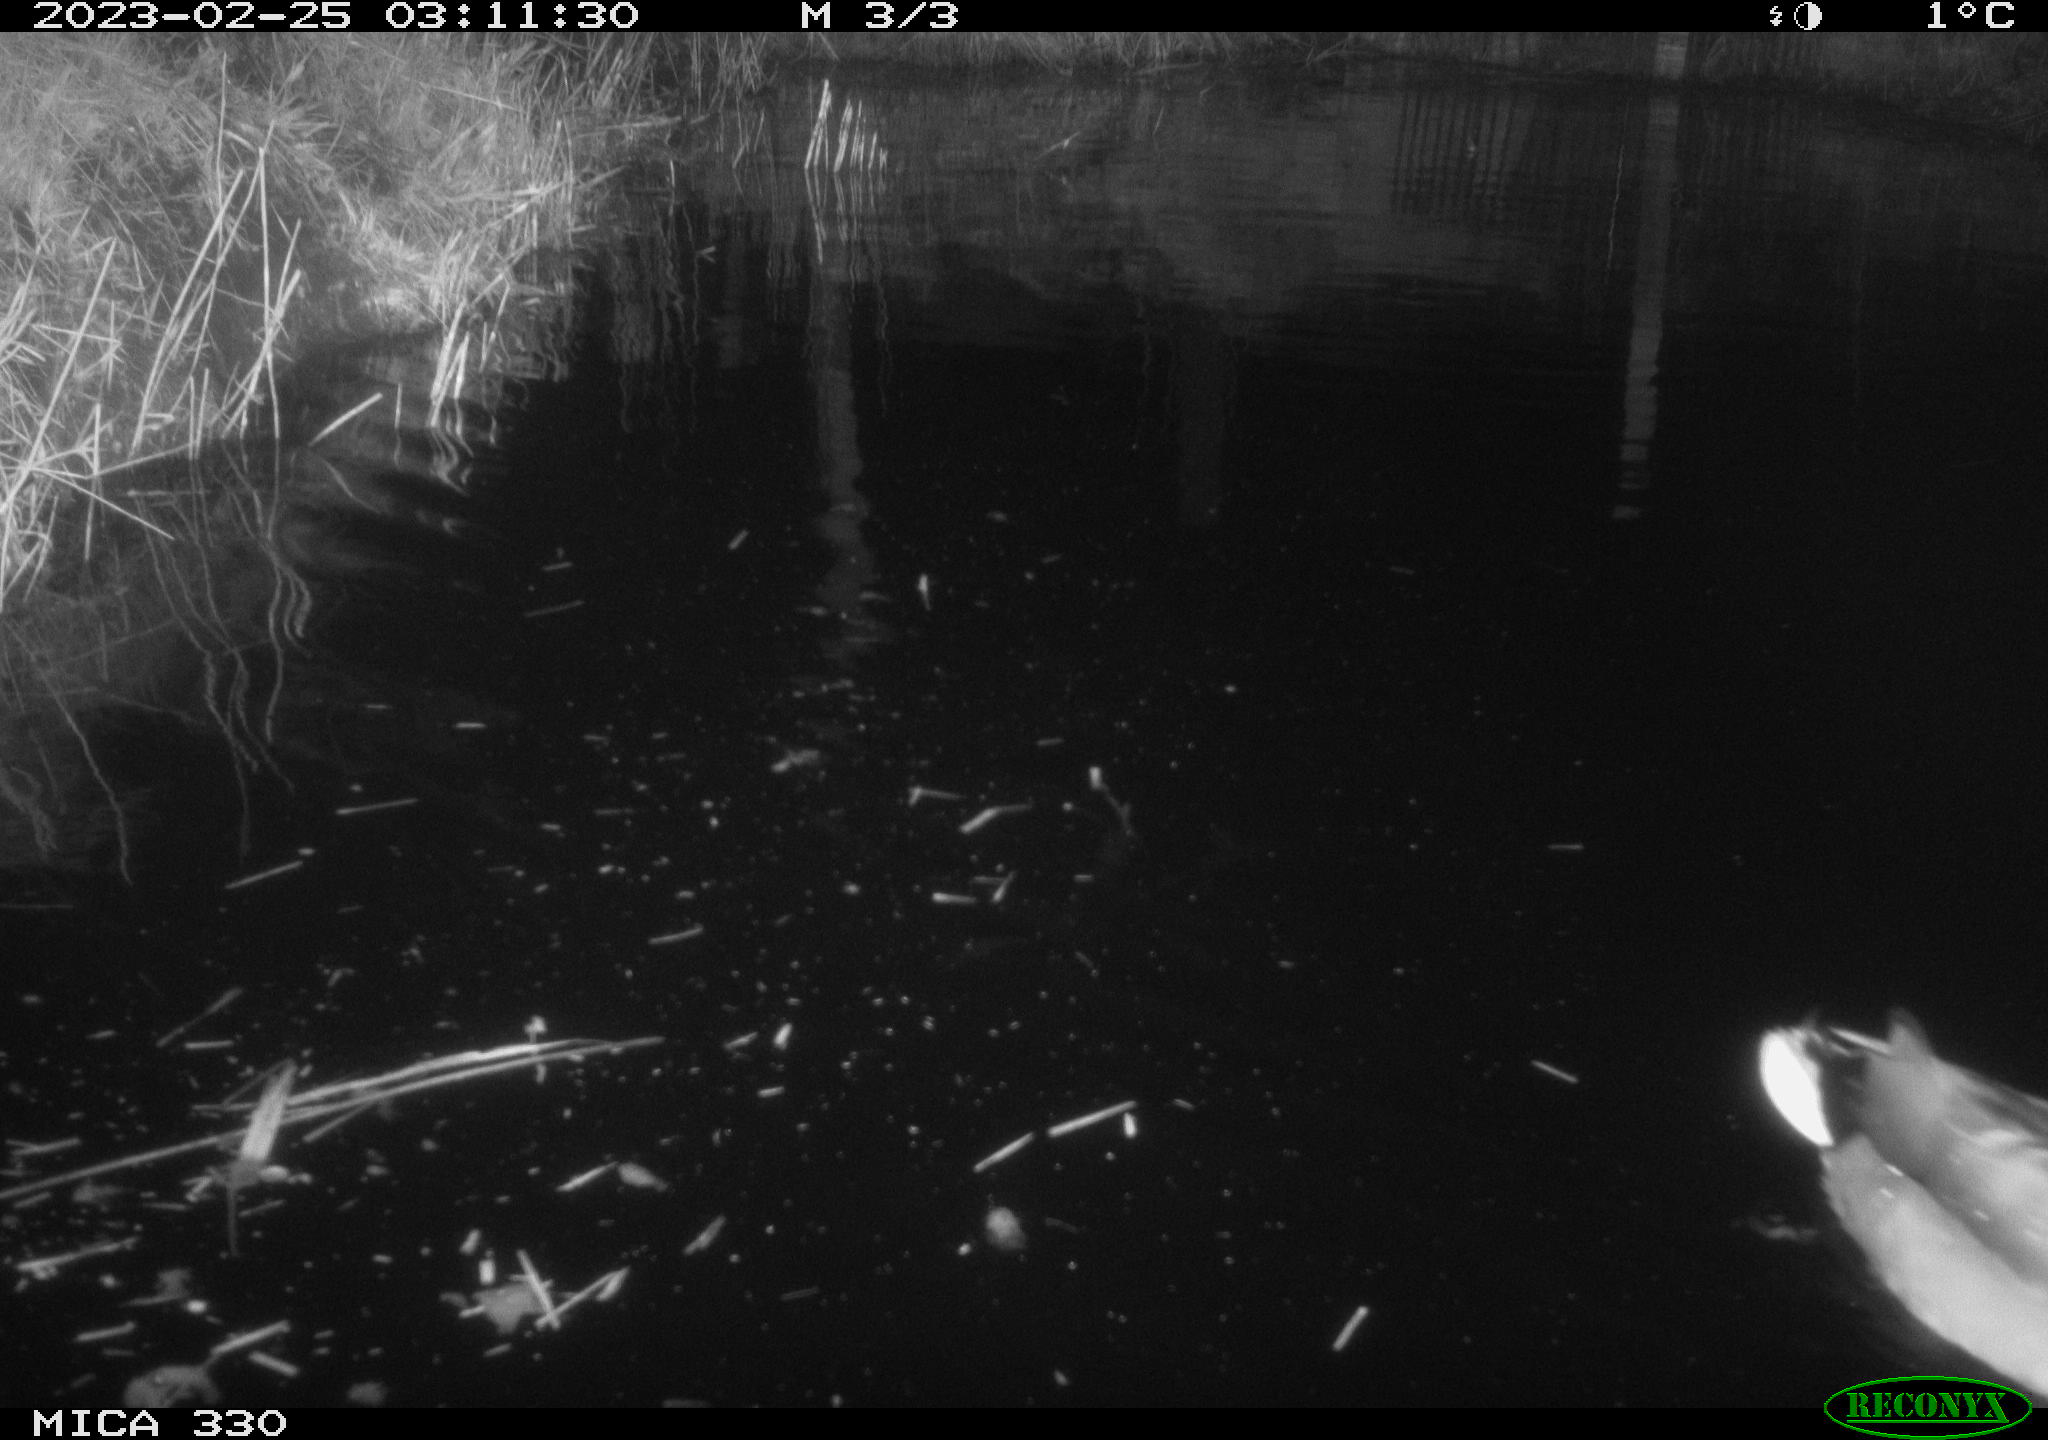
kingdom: Animalia
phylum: Chordata
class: Aves
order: Anseriformes
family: Anatidae
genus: Anas
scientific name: Anas
